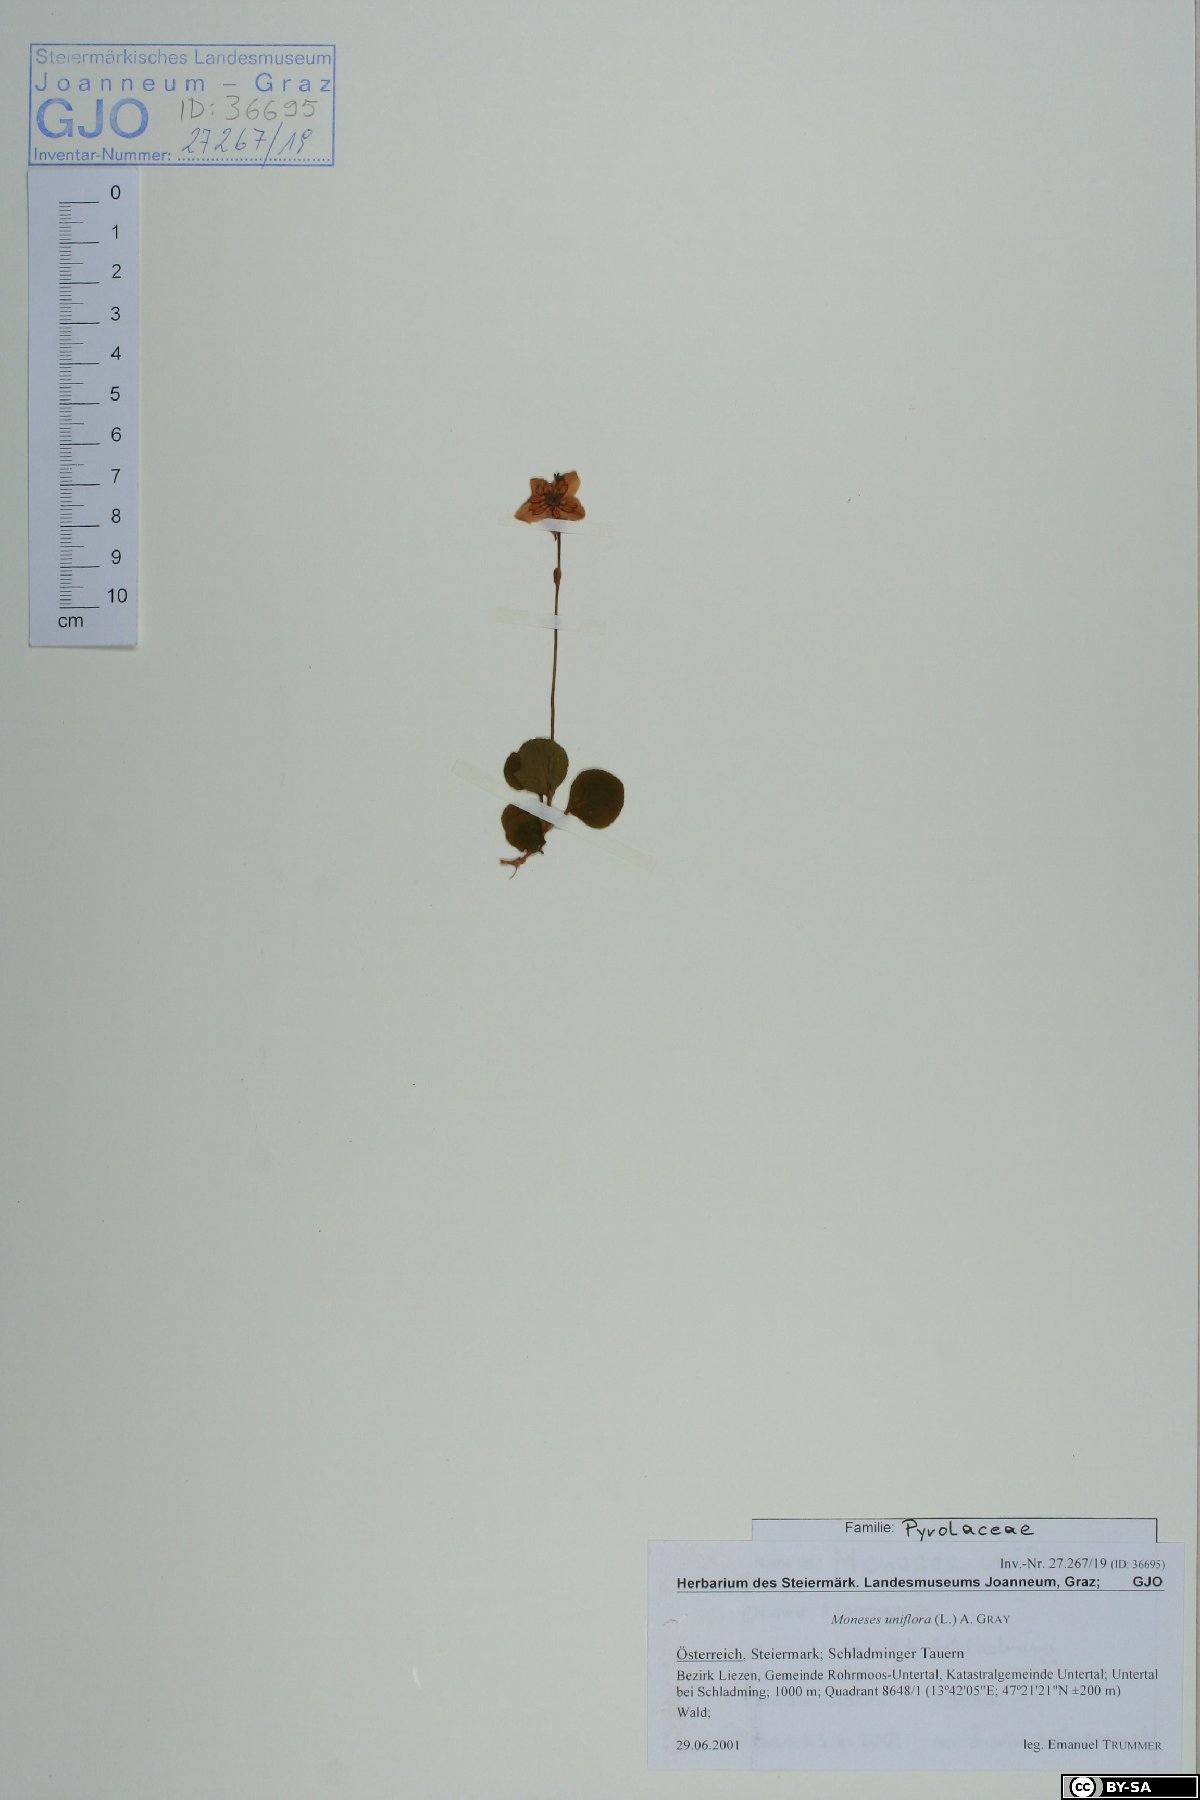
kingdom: Plantae
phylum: Tracheophyta
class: Magnoliopsida
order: Ericales
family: Ericaceae
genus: Moneses
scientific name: Moneses uniflora
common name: One-flowered wintergreen
